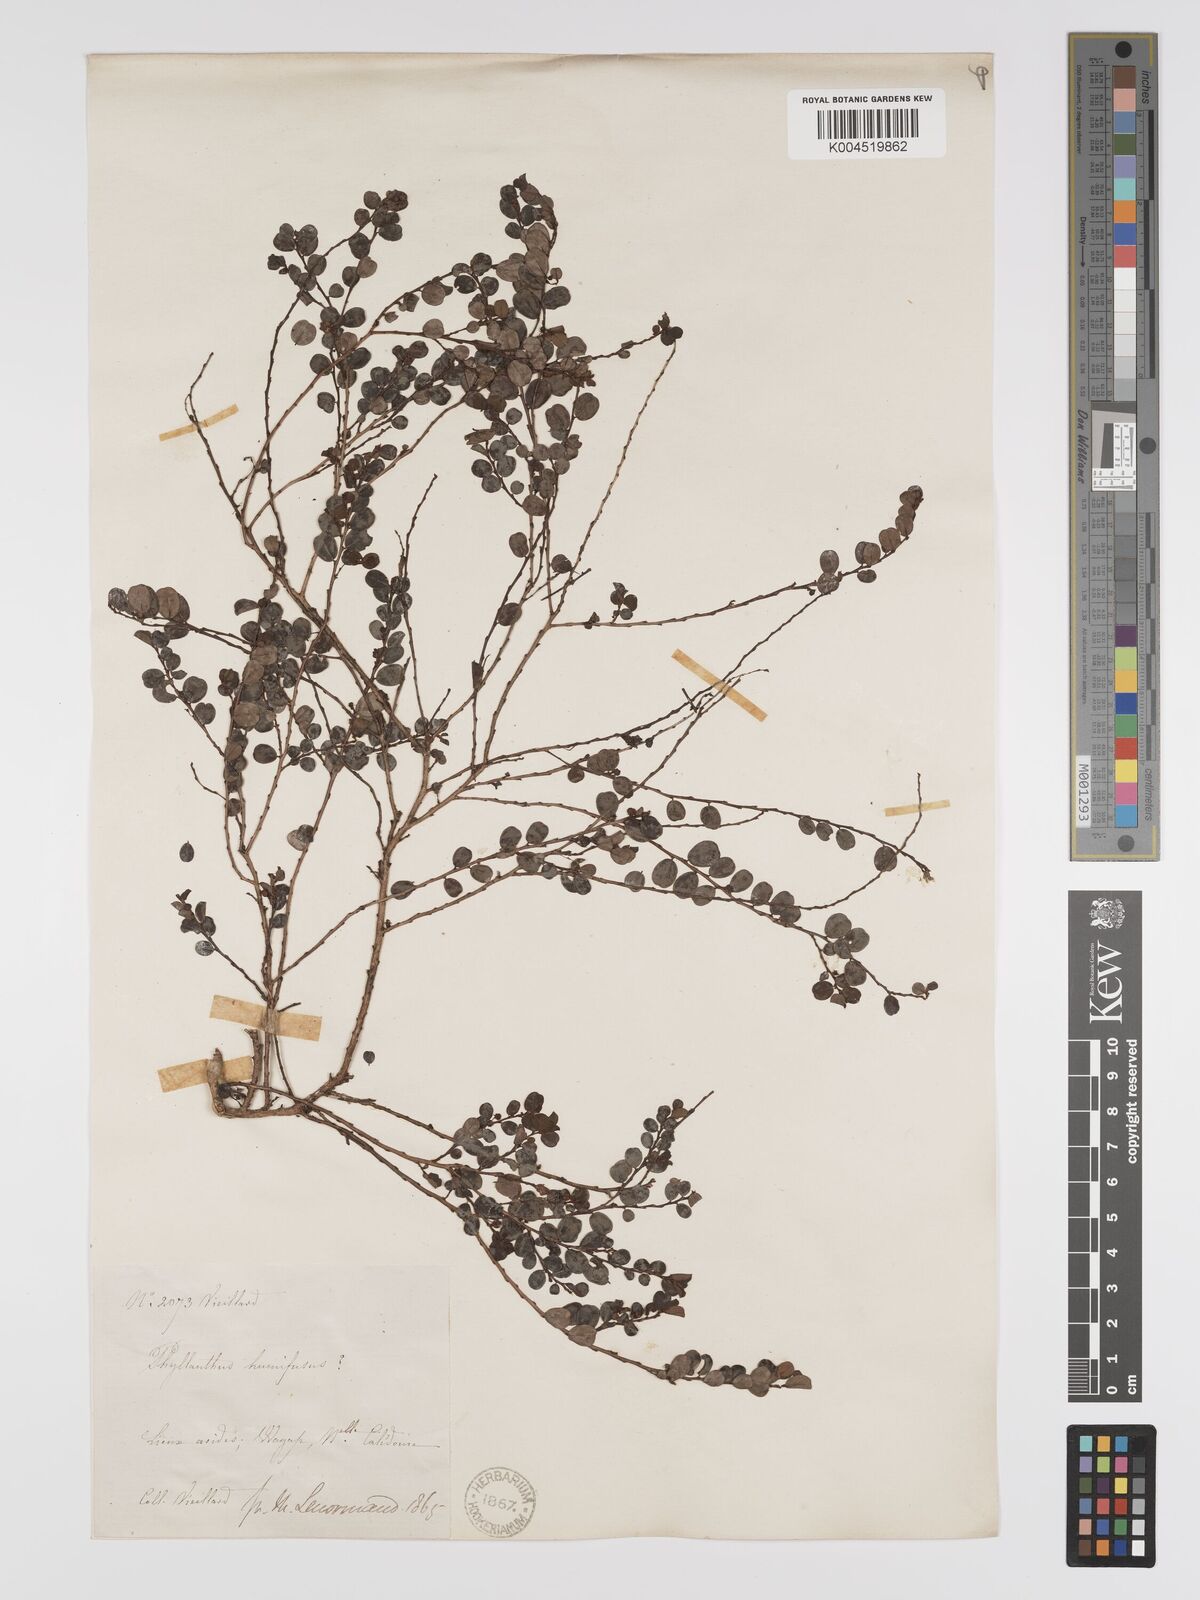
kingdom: Plantae
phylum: Tracheophyta
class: Magnoliopsida
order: Malpighiales
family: Phyllanthaceae
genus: Phyllanthus
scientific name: Phyllanthus chrysanthus
